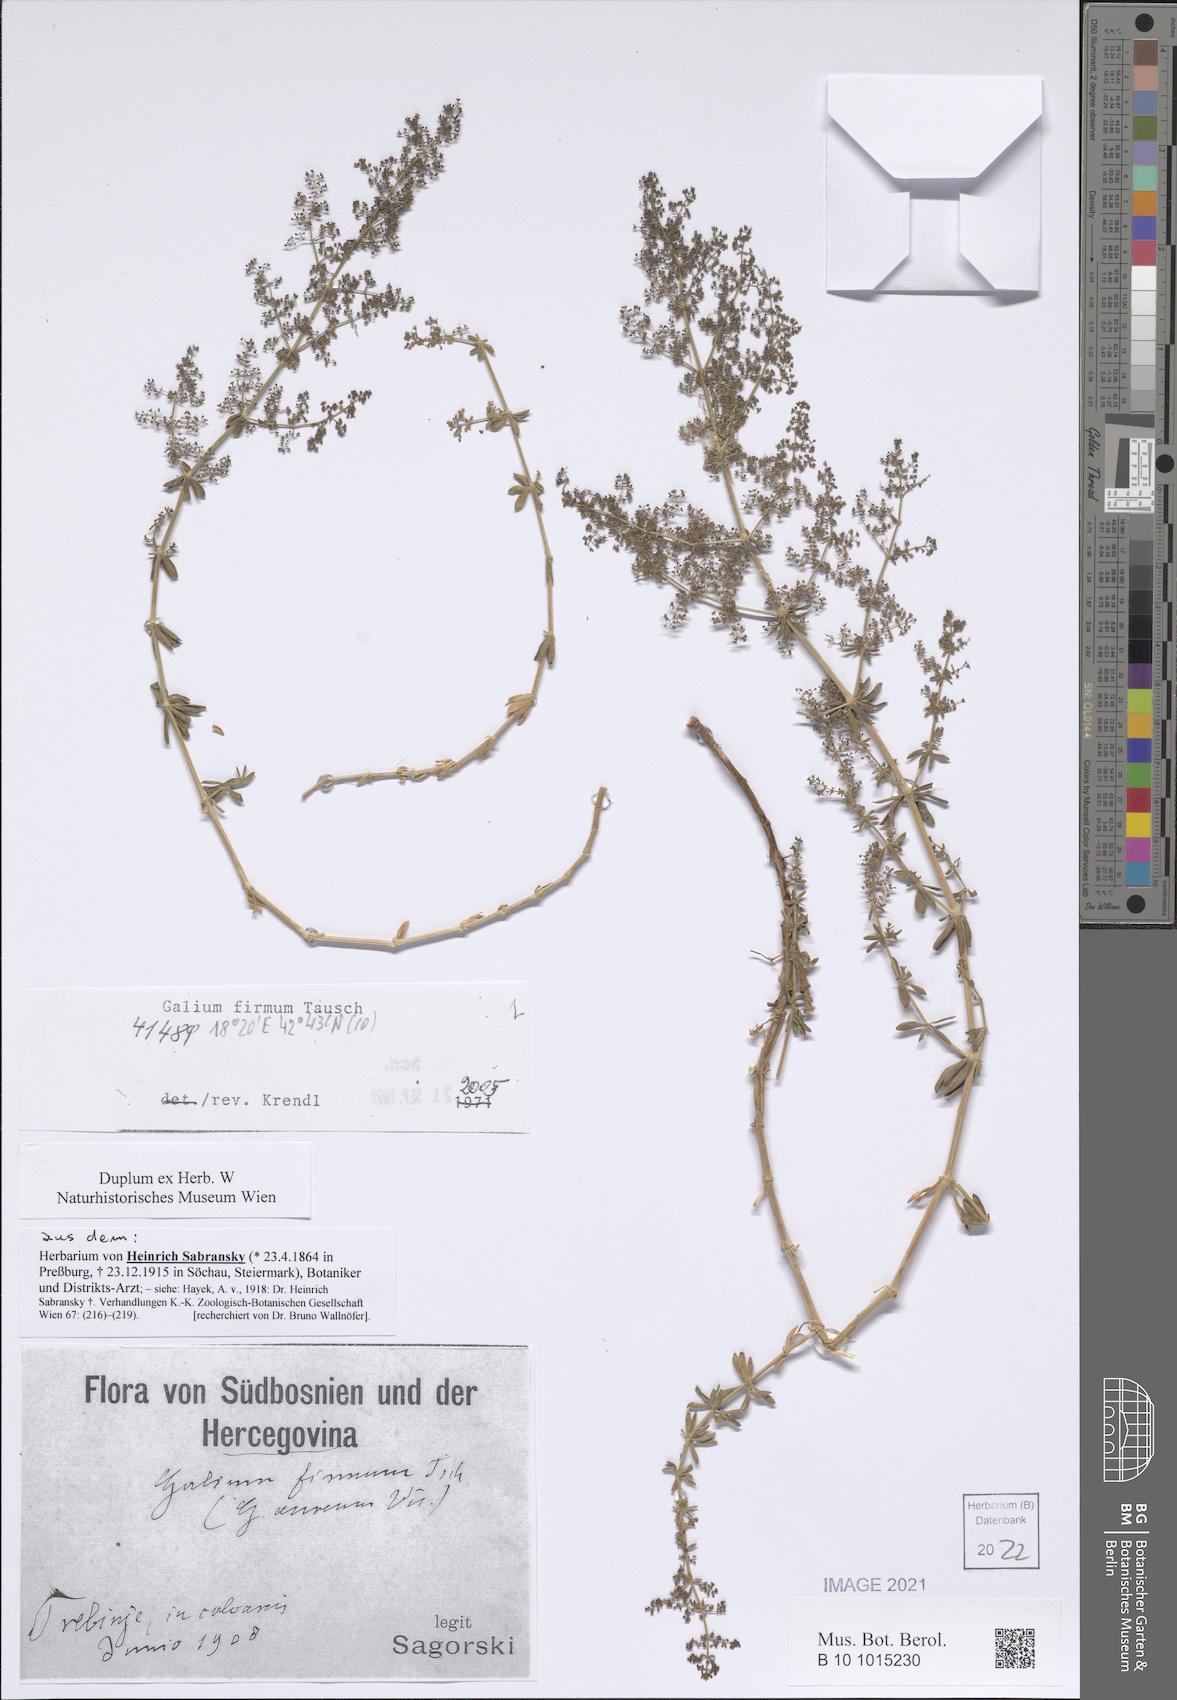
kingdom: Plantae
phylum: Tracheophyta
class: Magnoliopsida
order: Gentianales
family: Rubiaceae
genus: Galium
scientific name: Galium firmum
